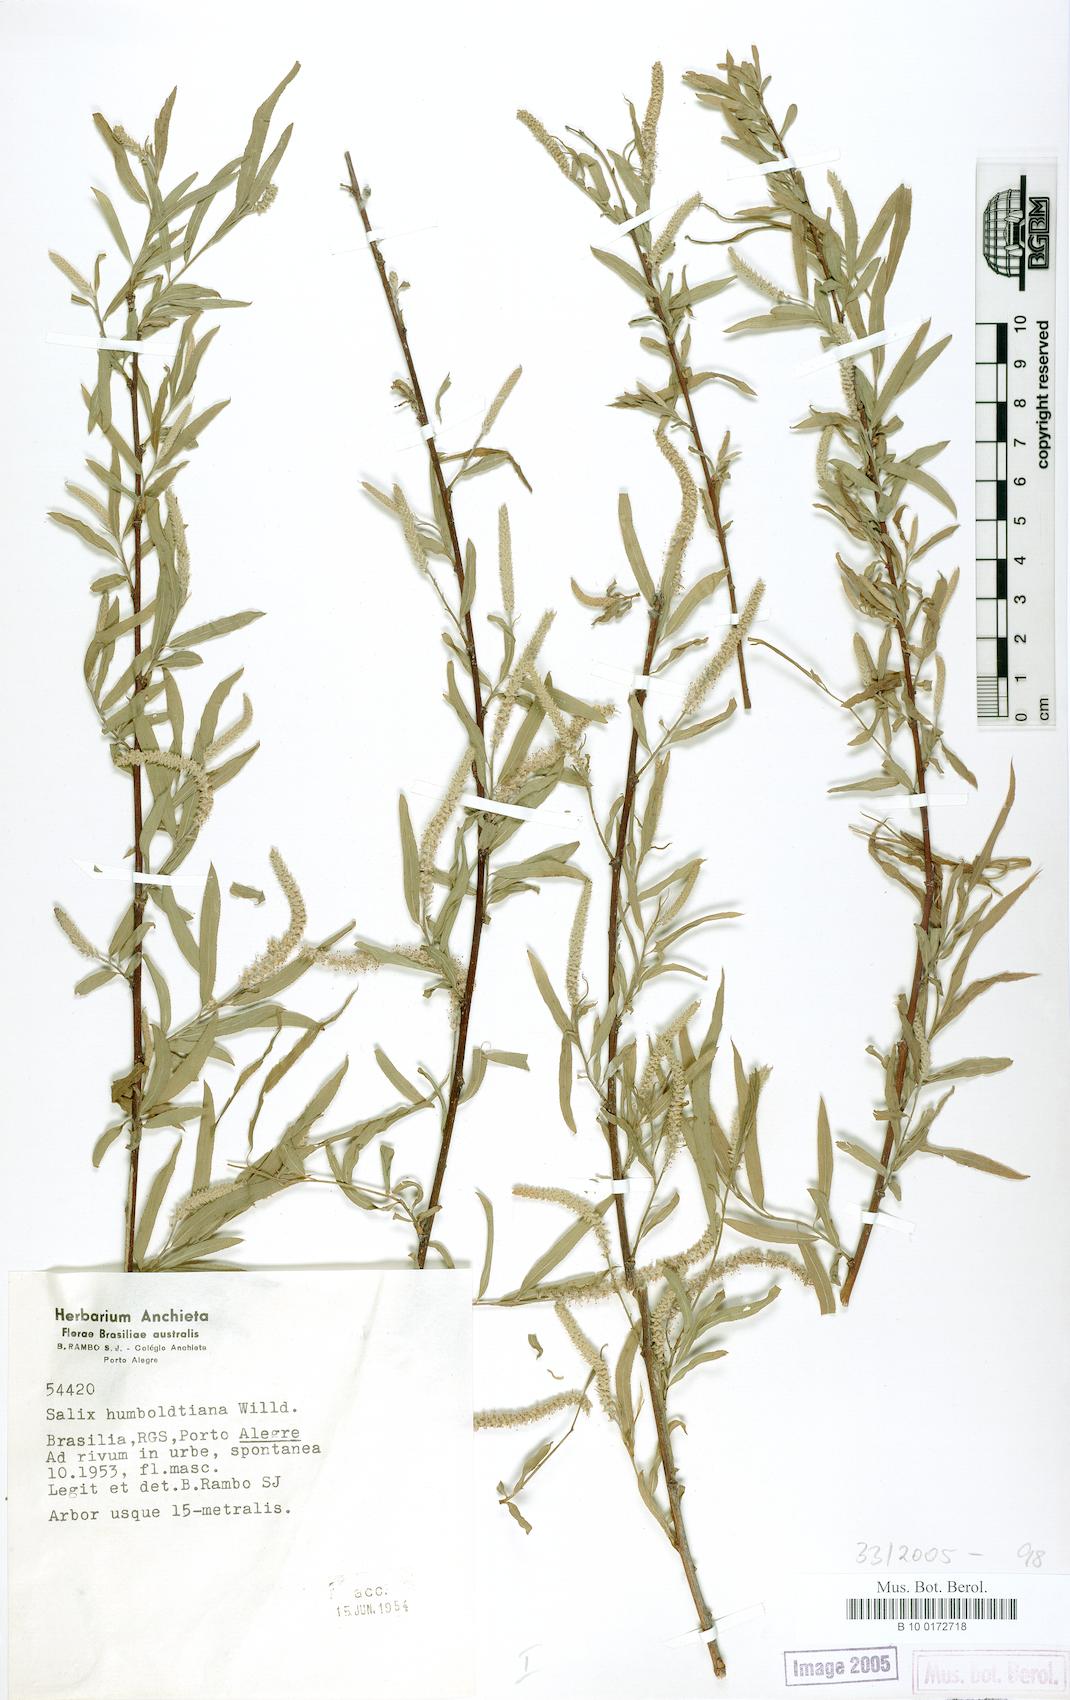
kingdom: Plantae
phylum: Tracheophyta
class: Magnoliopsida
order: Malpighiales
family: Salicaceae
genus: Salix
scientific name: Salix humboldtiana
